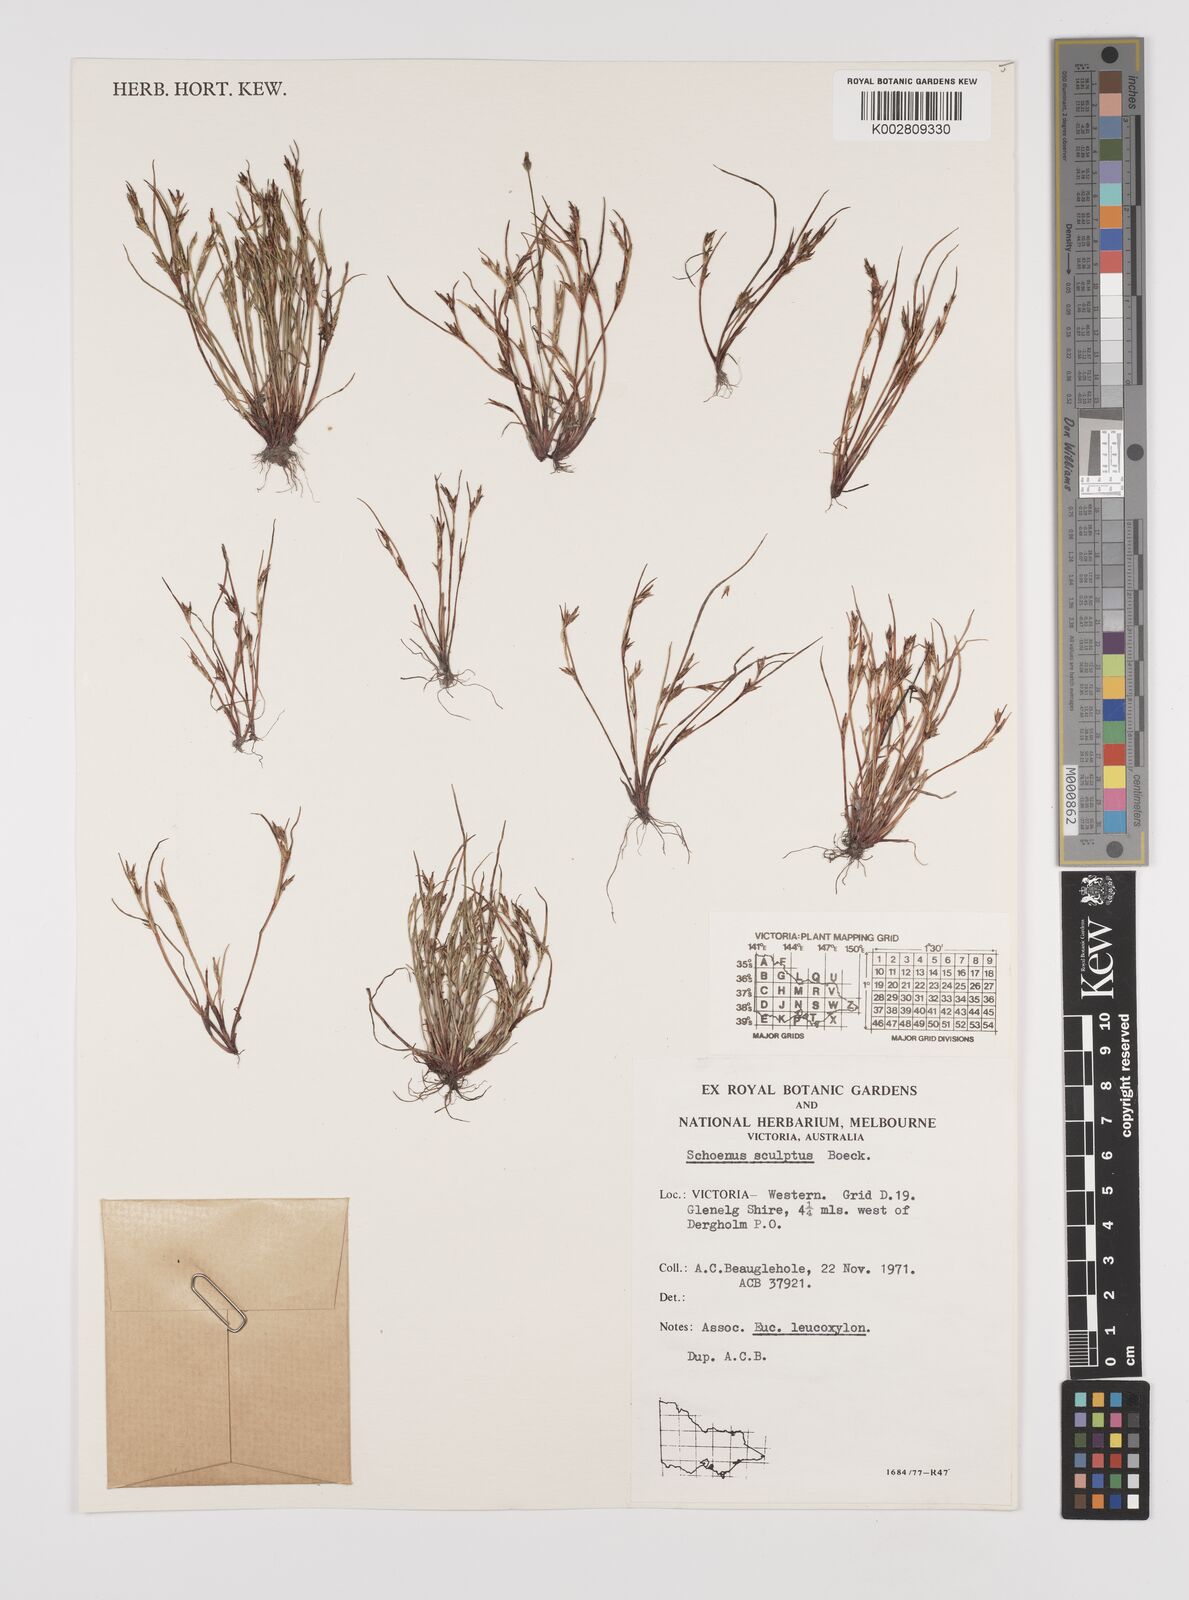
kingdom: Plantae
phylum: Tracheophyta
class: Liliopsida
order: Poales
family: Cyperaceae
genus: Schoenus
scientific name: Schoenus sculptus
